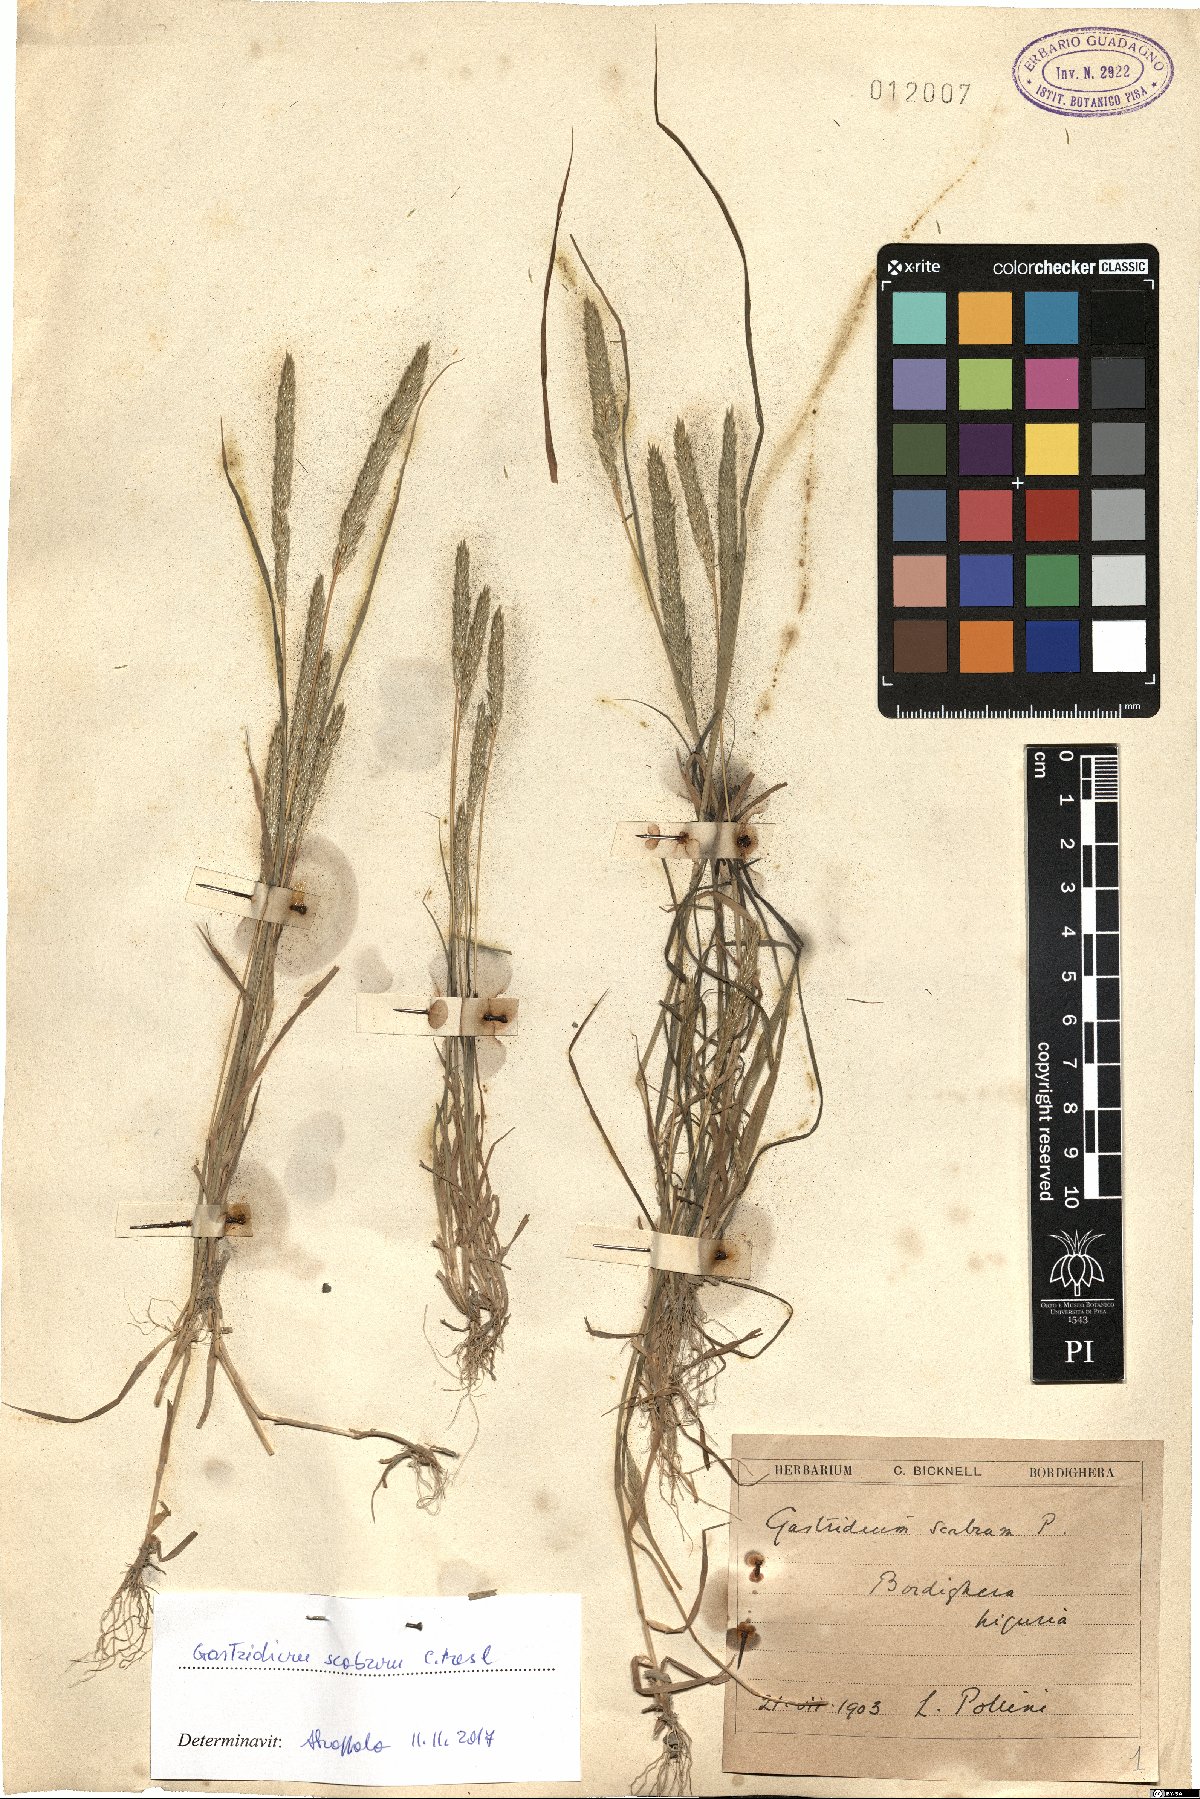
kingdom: Plantae
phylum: Tracheophyta
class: Liliopsida
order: Poales
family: Poaceae
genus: Gastridium
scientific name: Gastridium scabrum
